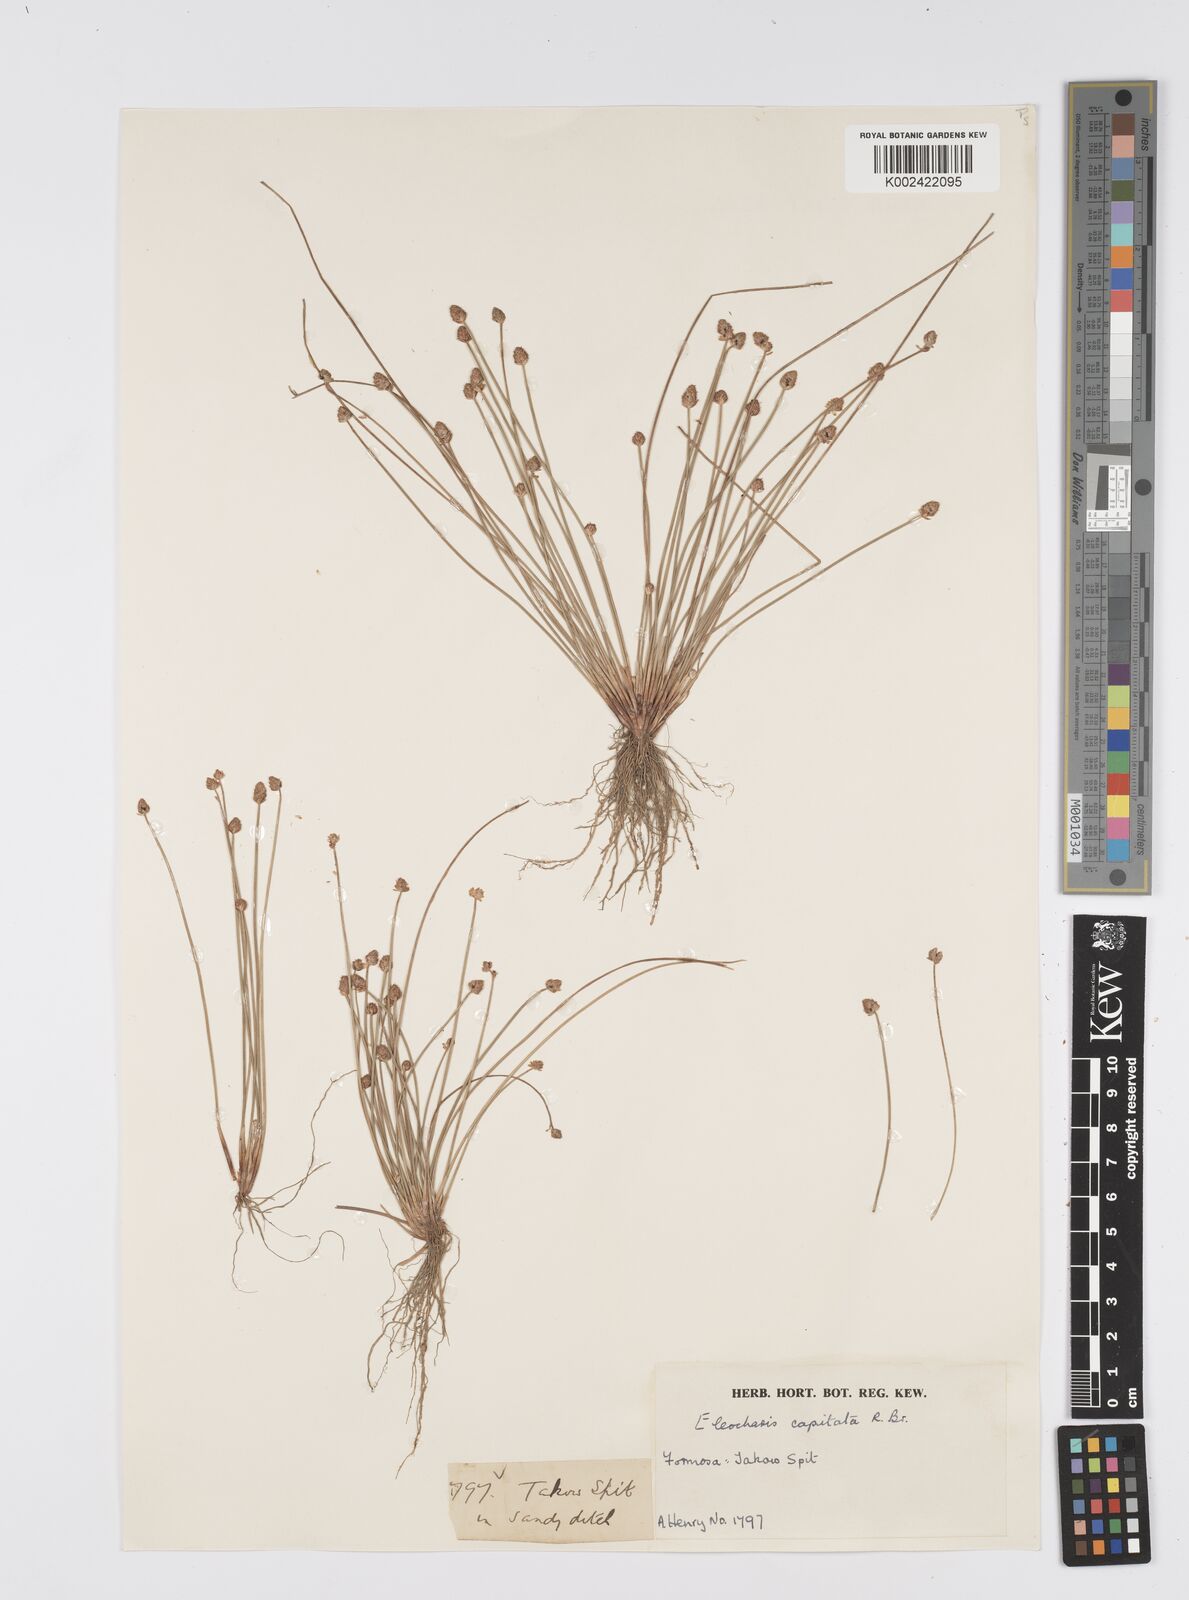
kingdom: Plantae
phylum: Tracheophyta
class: Liliopsida
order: Poales
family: Cyperaceae
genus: Eleocharis
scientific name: Eleocharis geniculata
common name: Canada spikesedge
